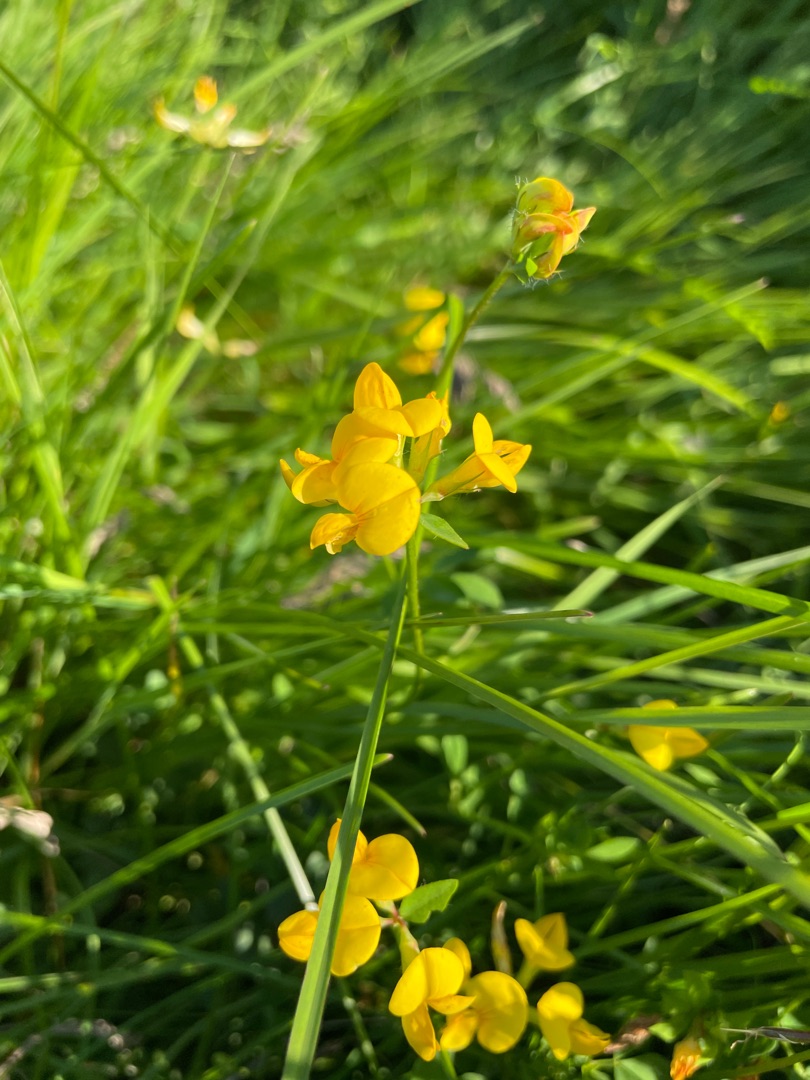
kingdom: Plantae
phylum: Tracheophyta
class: Magnoliopsida
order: Fabales
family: Fabaceae
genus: Lotus
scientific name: Lotus corniculatus
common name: Almindelig kællingetand
